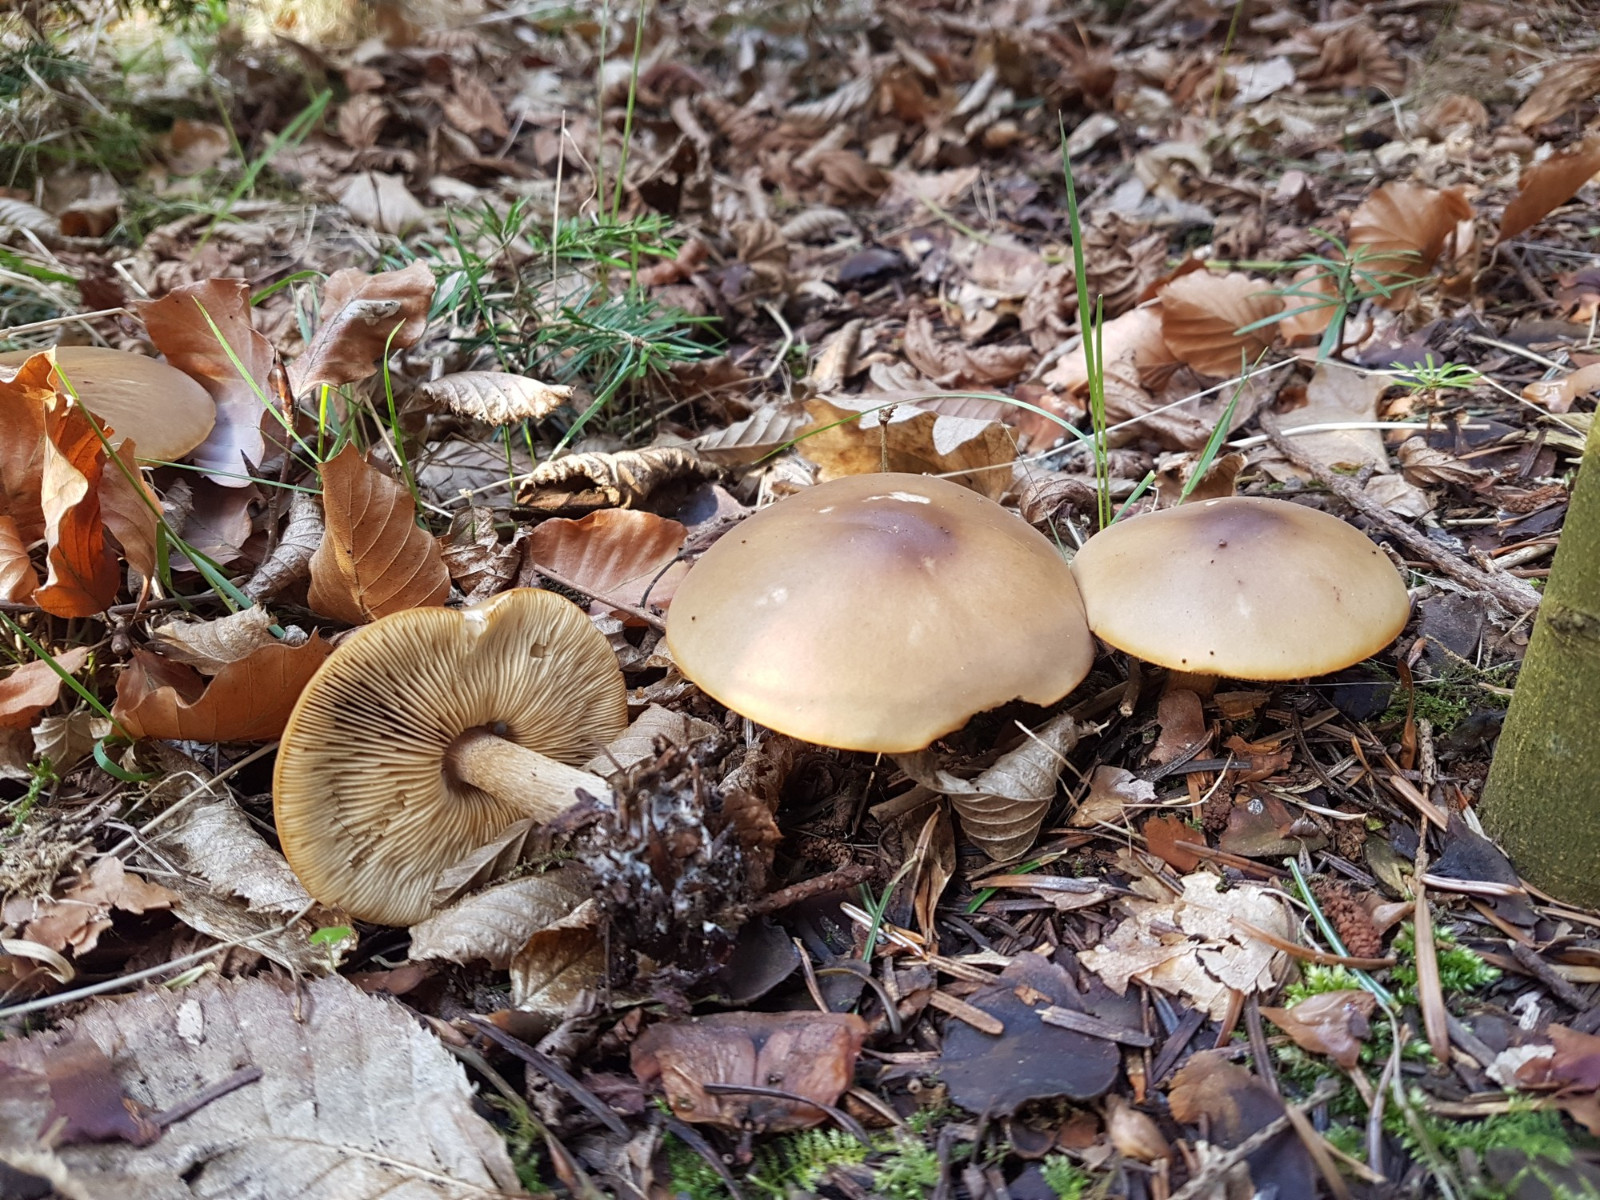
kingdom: Fungi
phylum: Basidiomycota
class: Agaricomycetes
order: Agaricales
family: Tricholomataceae
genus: Melanoleuca
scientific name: Melanoleuca cognata
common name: gyldengrå munkehat
